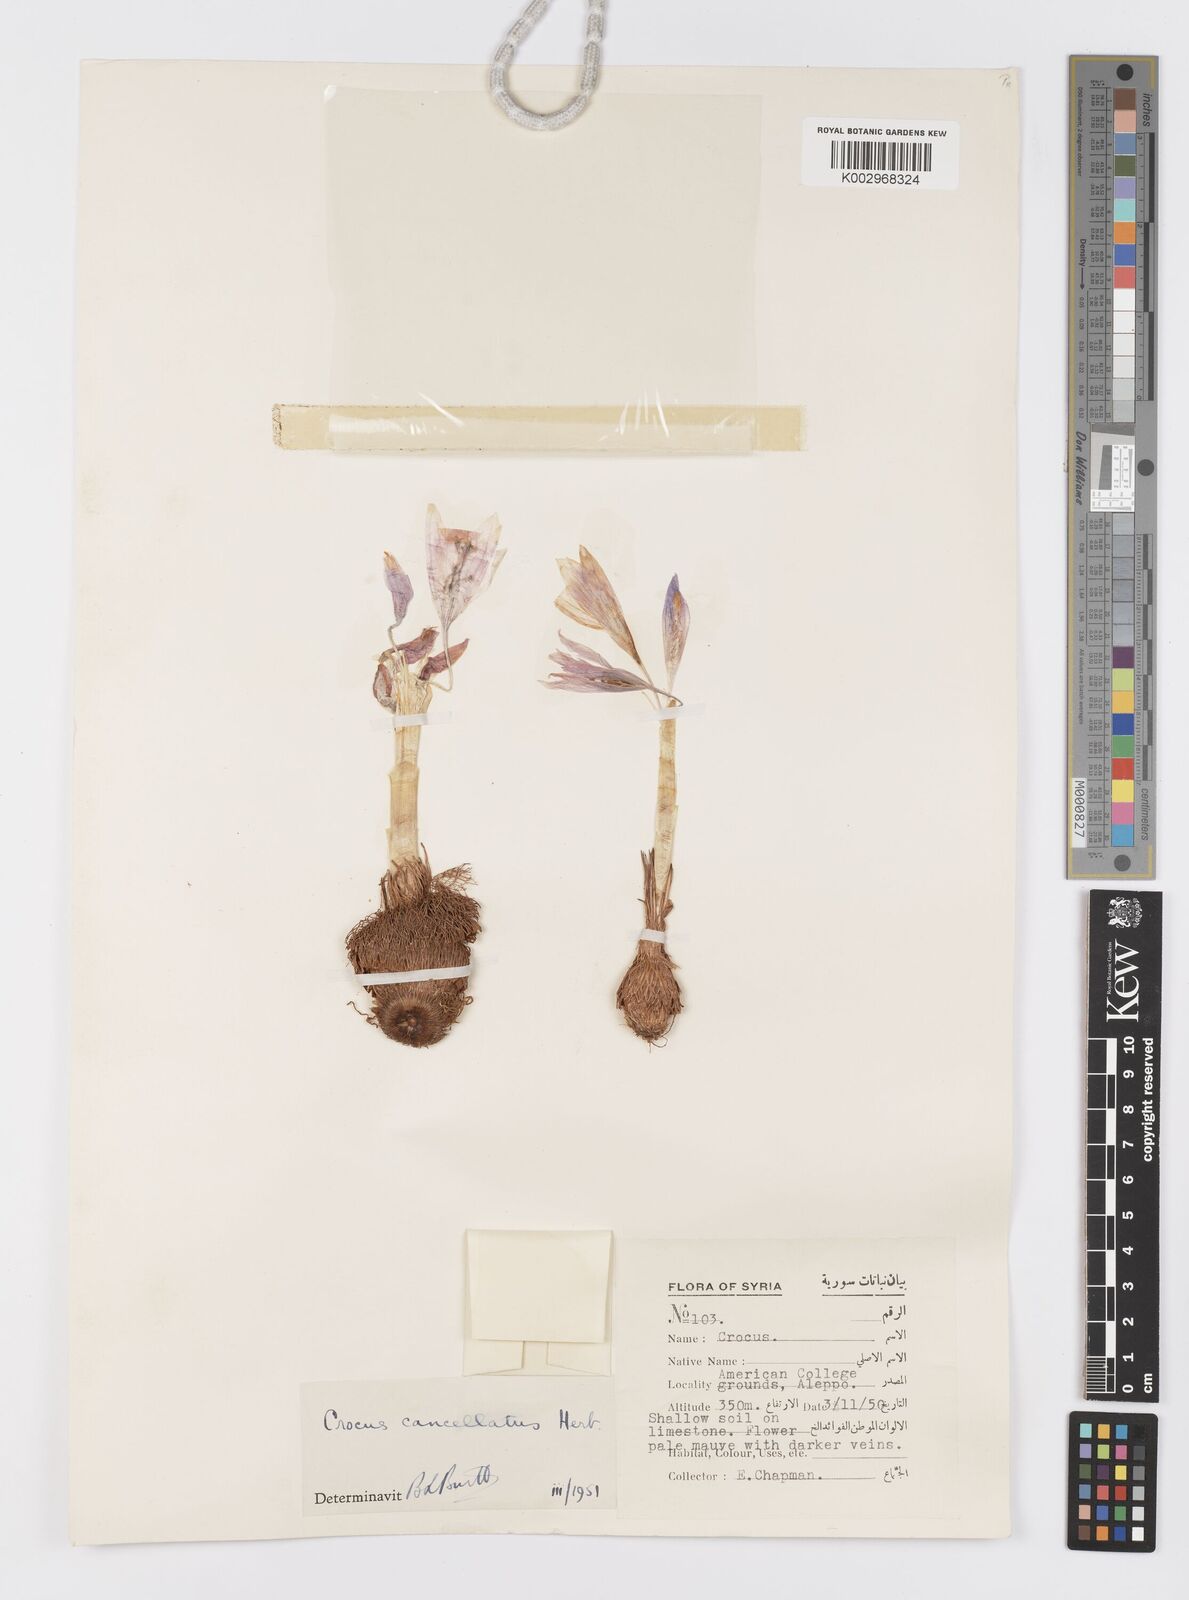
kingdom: Plantae
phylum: Tracheophyta
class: Liliopsida
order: Asparagales
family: Iridaceae
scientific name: Iridaceae
